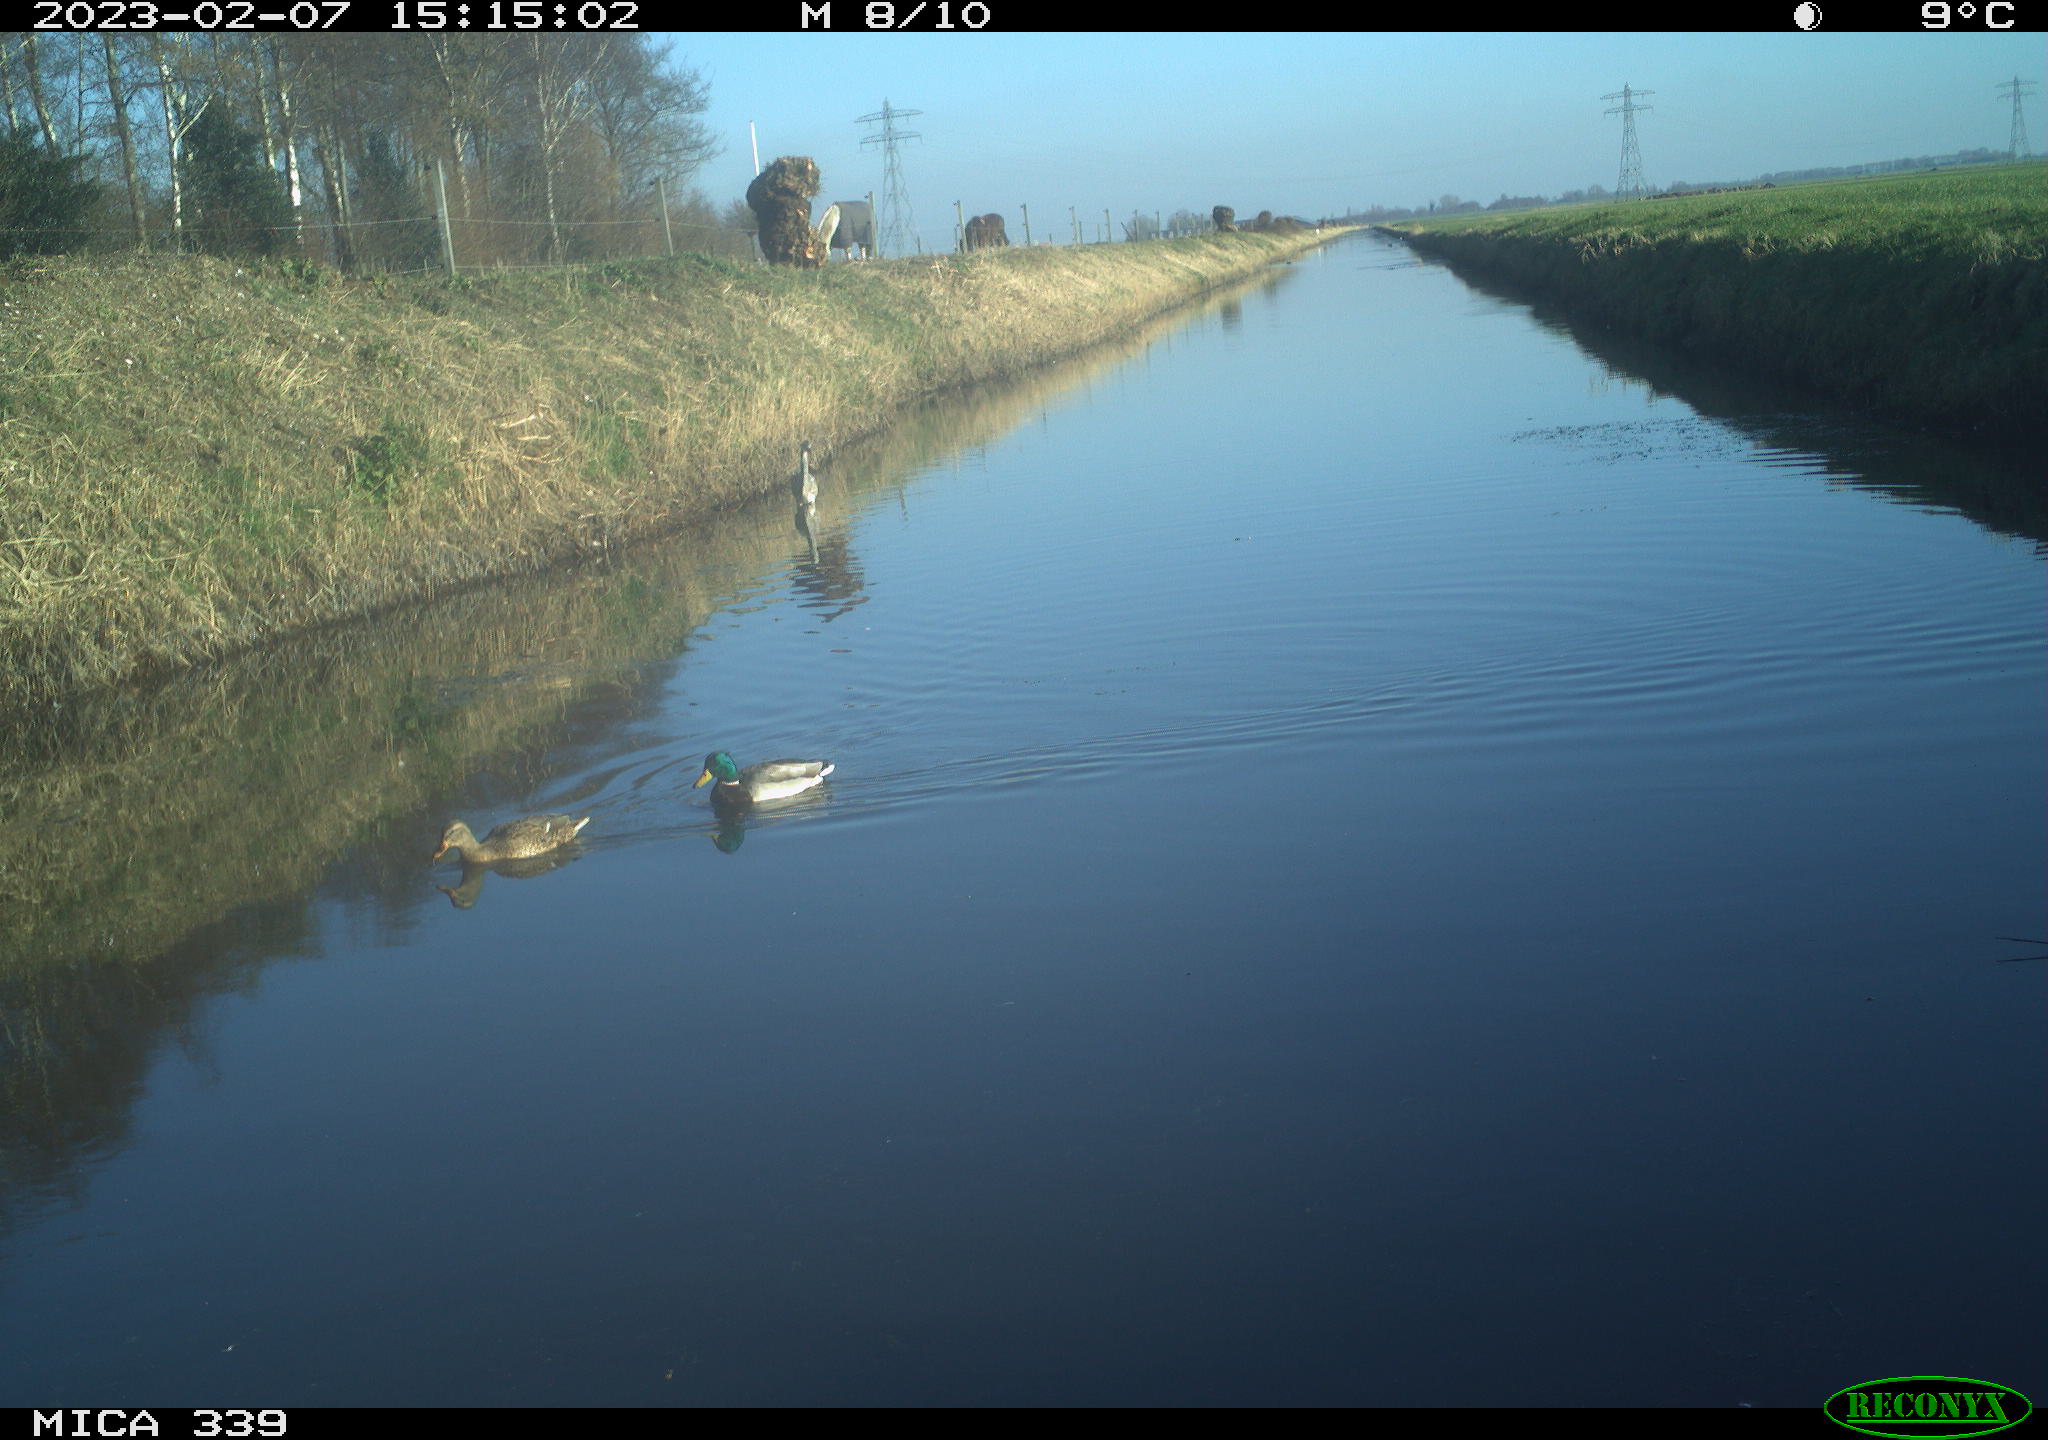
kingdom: Animalia
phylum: Chordata
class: Aves
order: Pelecaniformes
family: Ardeidae
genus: Ardea
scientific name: Ardea cinerea
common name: Grey heron
